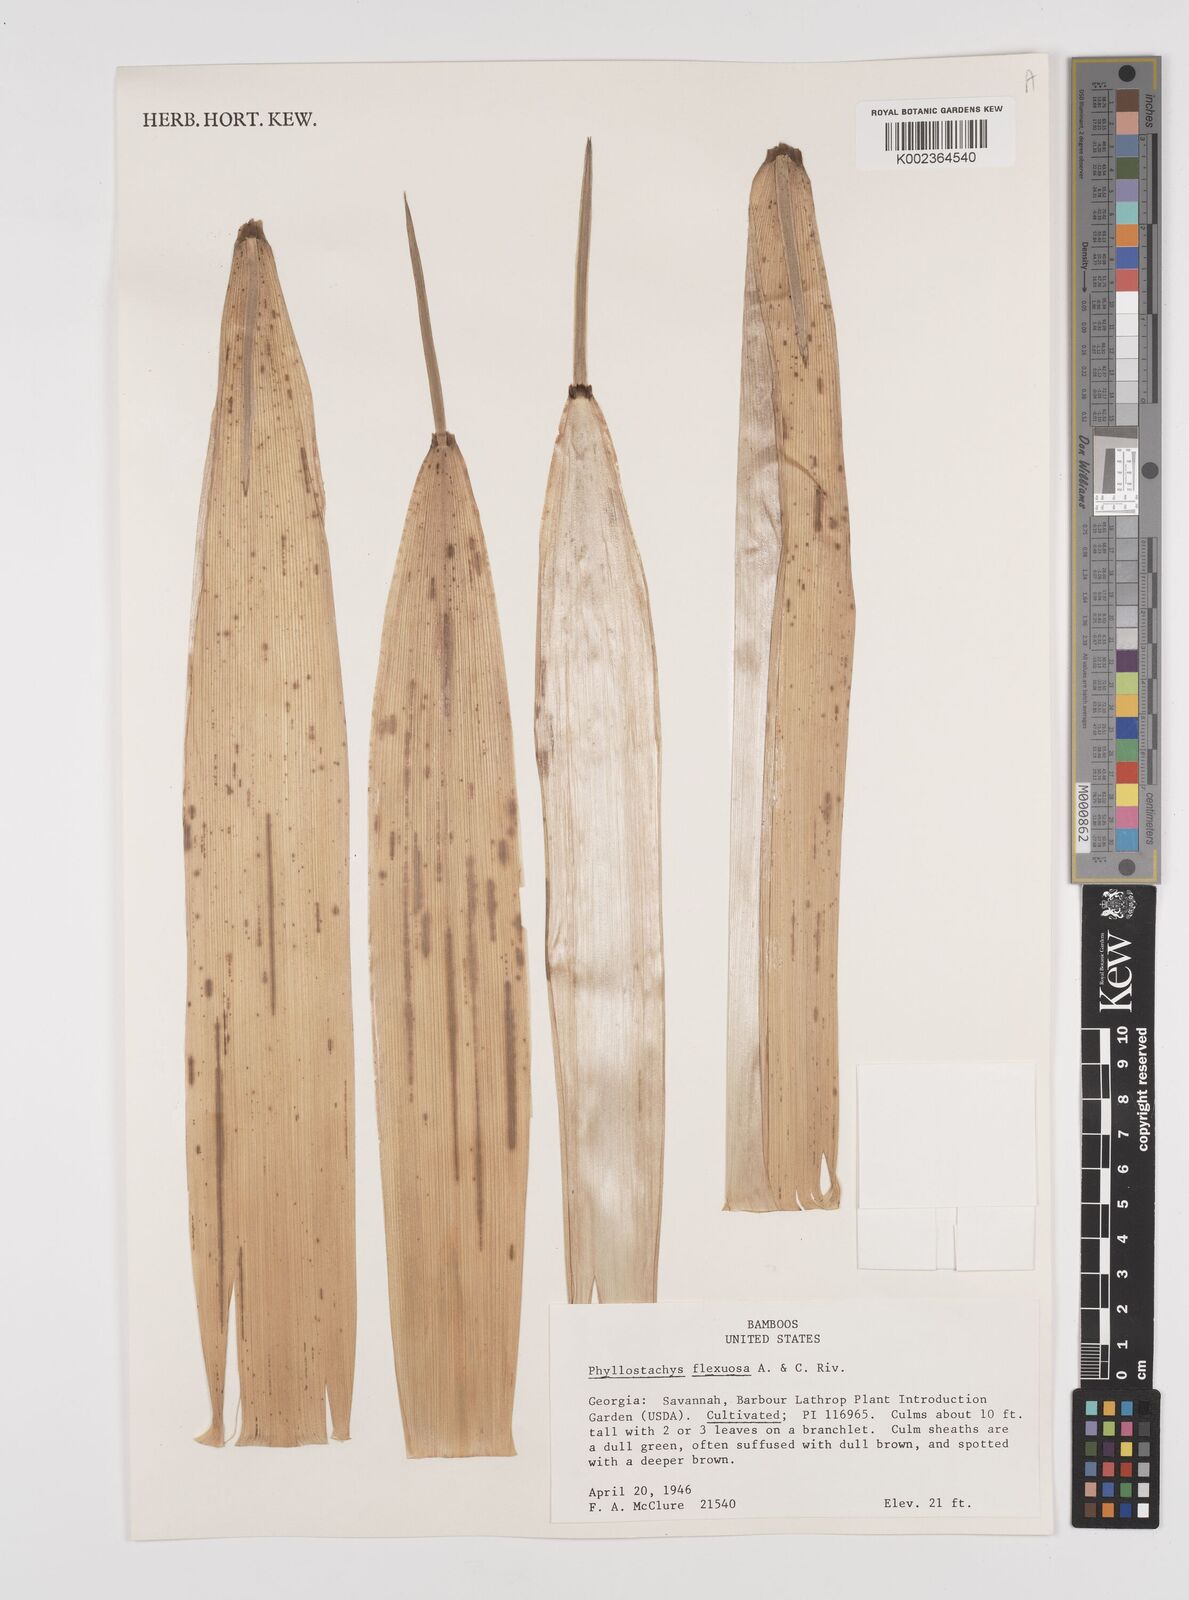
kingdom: Plantae
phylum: Tracheophyta
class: Liliopsida
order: Poales
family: Poaceae
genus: Phyllostachys
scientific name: Phyllostachys flexuosa
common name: Drooping timber bamboo
